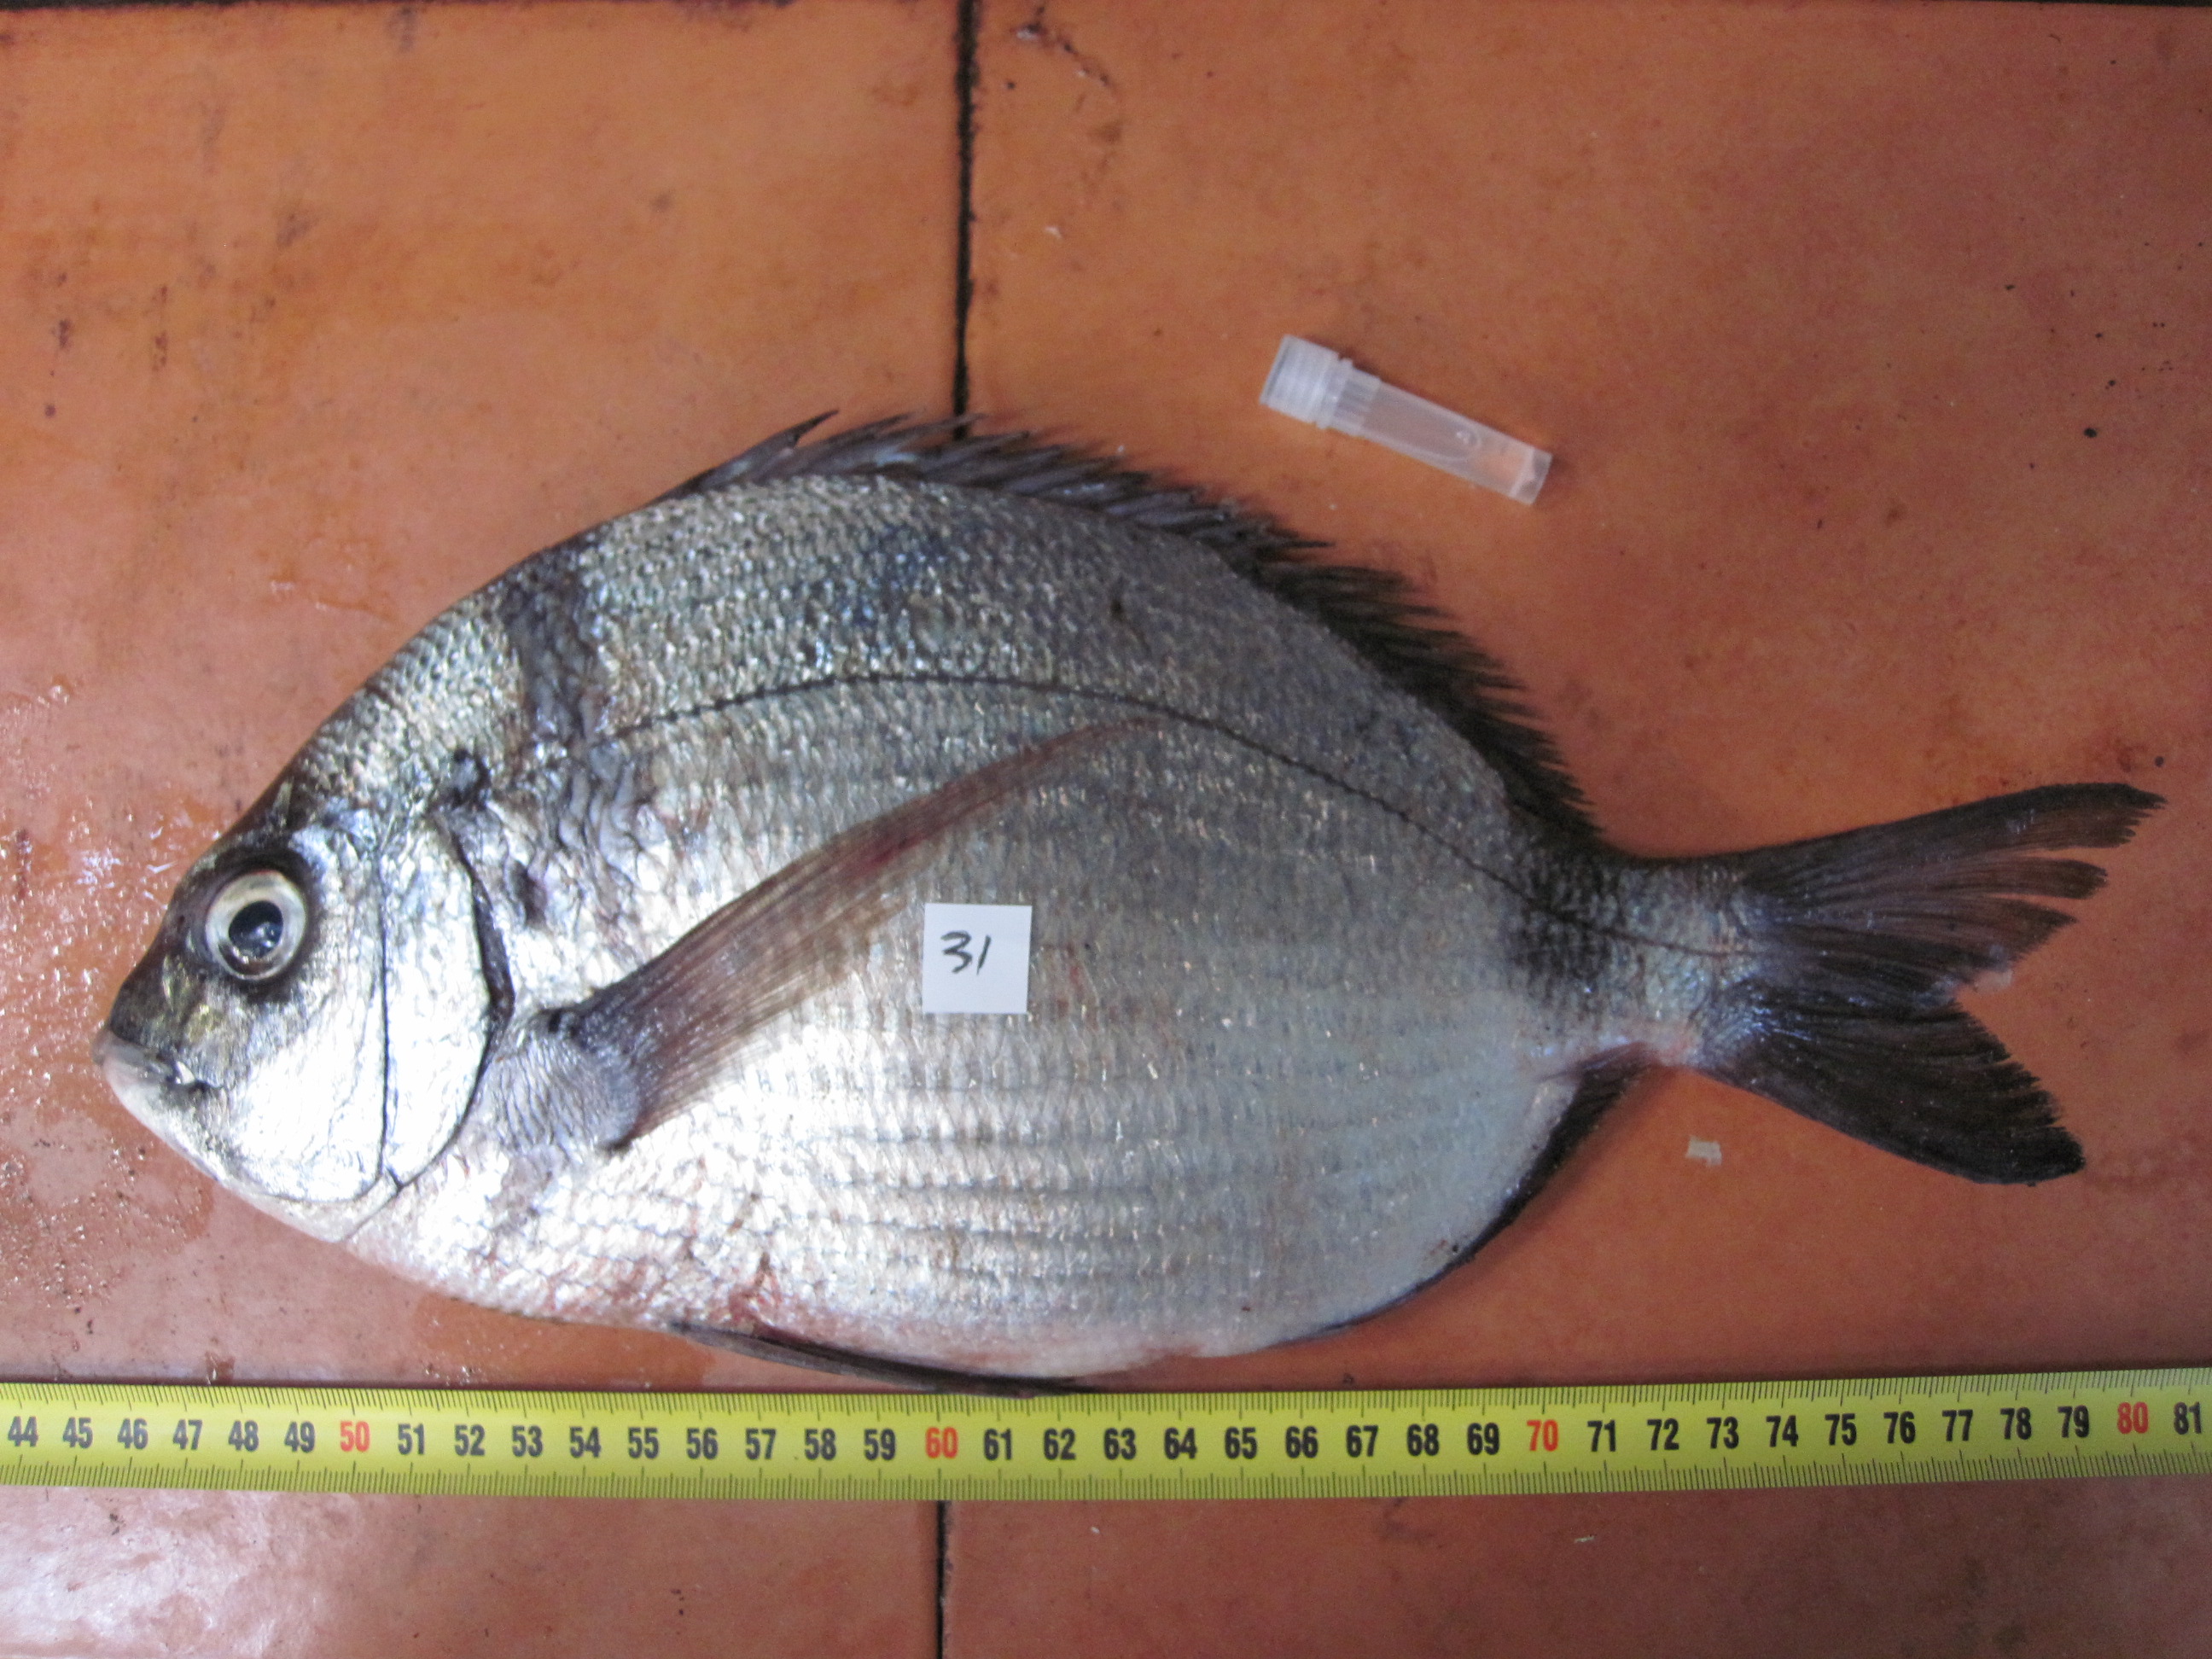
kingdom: Animalia
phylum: Chordata
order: Perciformes
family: Sparidae
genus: Diplodus
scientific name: Diplodus capensis
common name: Blacktail
